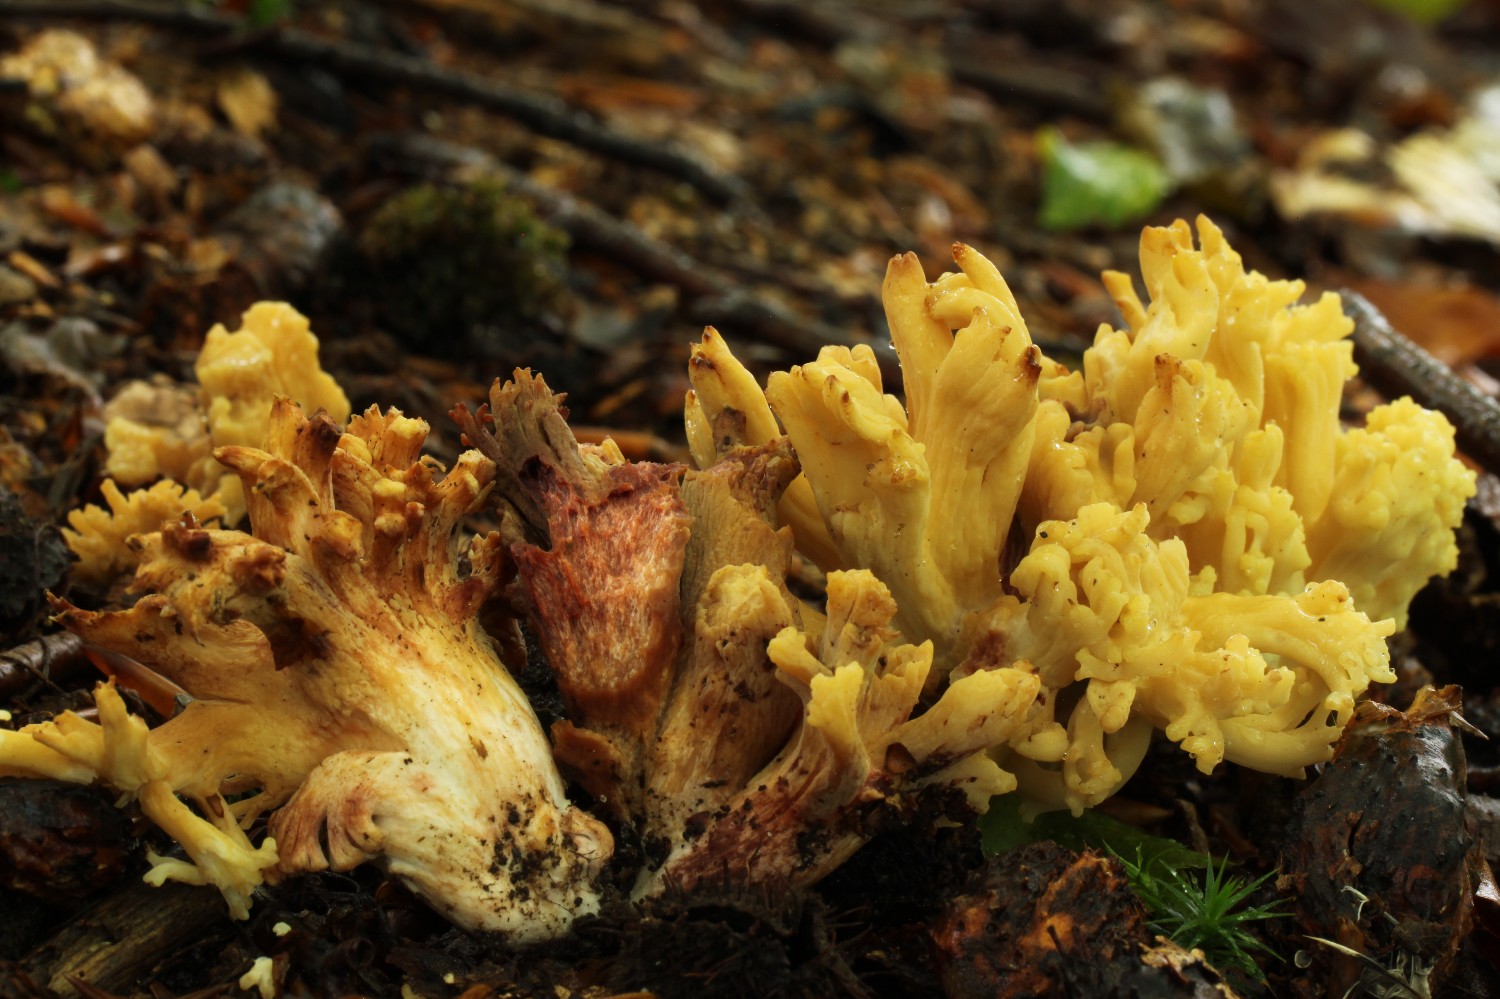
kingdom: Fungi
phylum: Basidiomycota
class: Agaricomycetes
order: Gomphales
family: Gomphaceae
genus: Ramaria
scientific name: Ramaria sanguinea
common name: blodplettet koralsvamp
